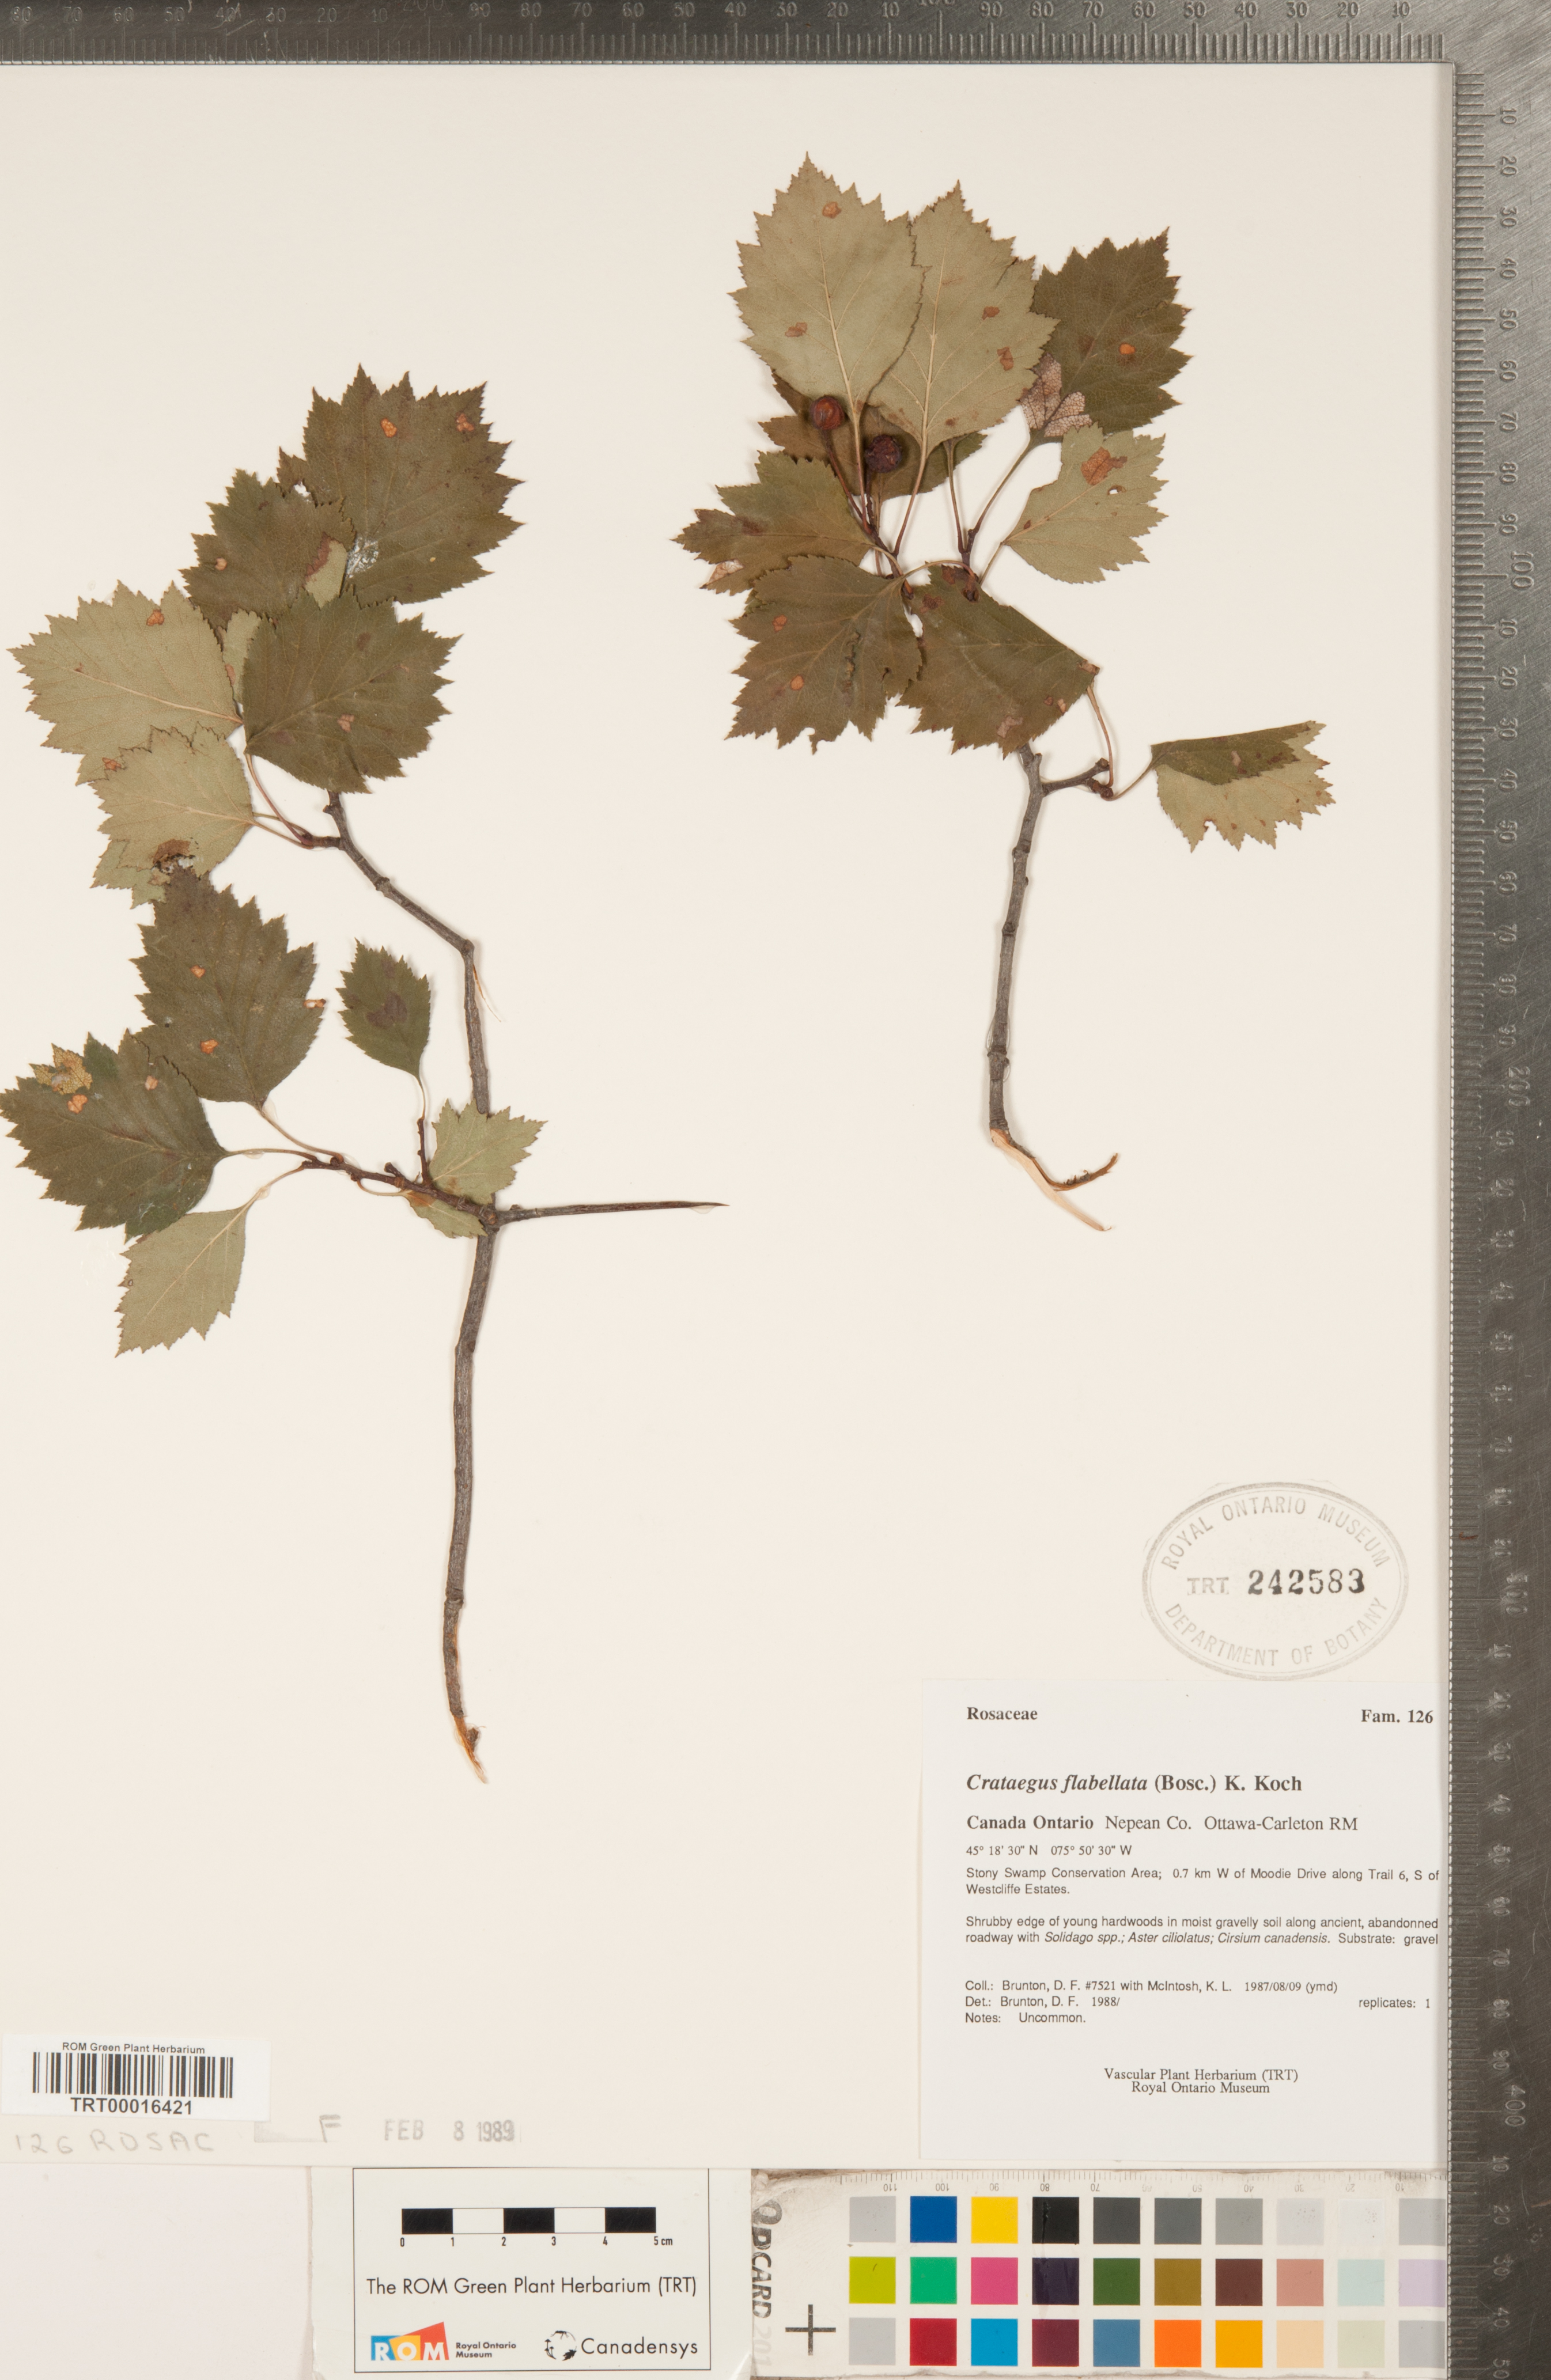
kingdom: Plantae
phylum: Tracheophyta
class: Magnoliopsida
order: Rosales
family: Rosaceae
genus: Crataegus
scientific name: Crataegus flabellata
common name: Bosc's hawthorn
